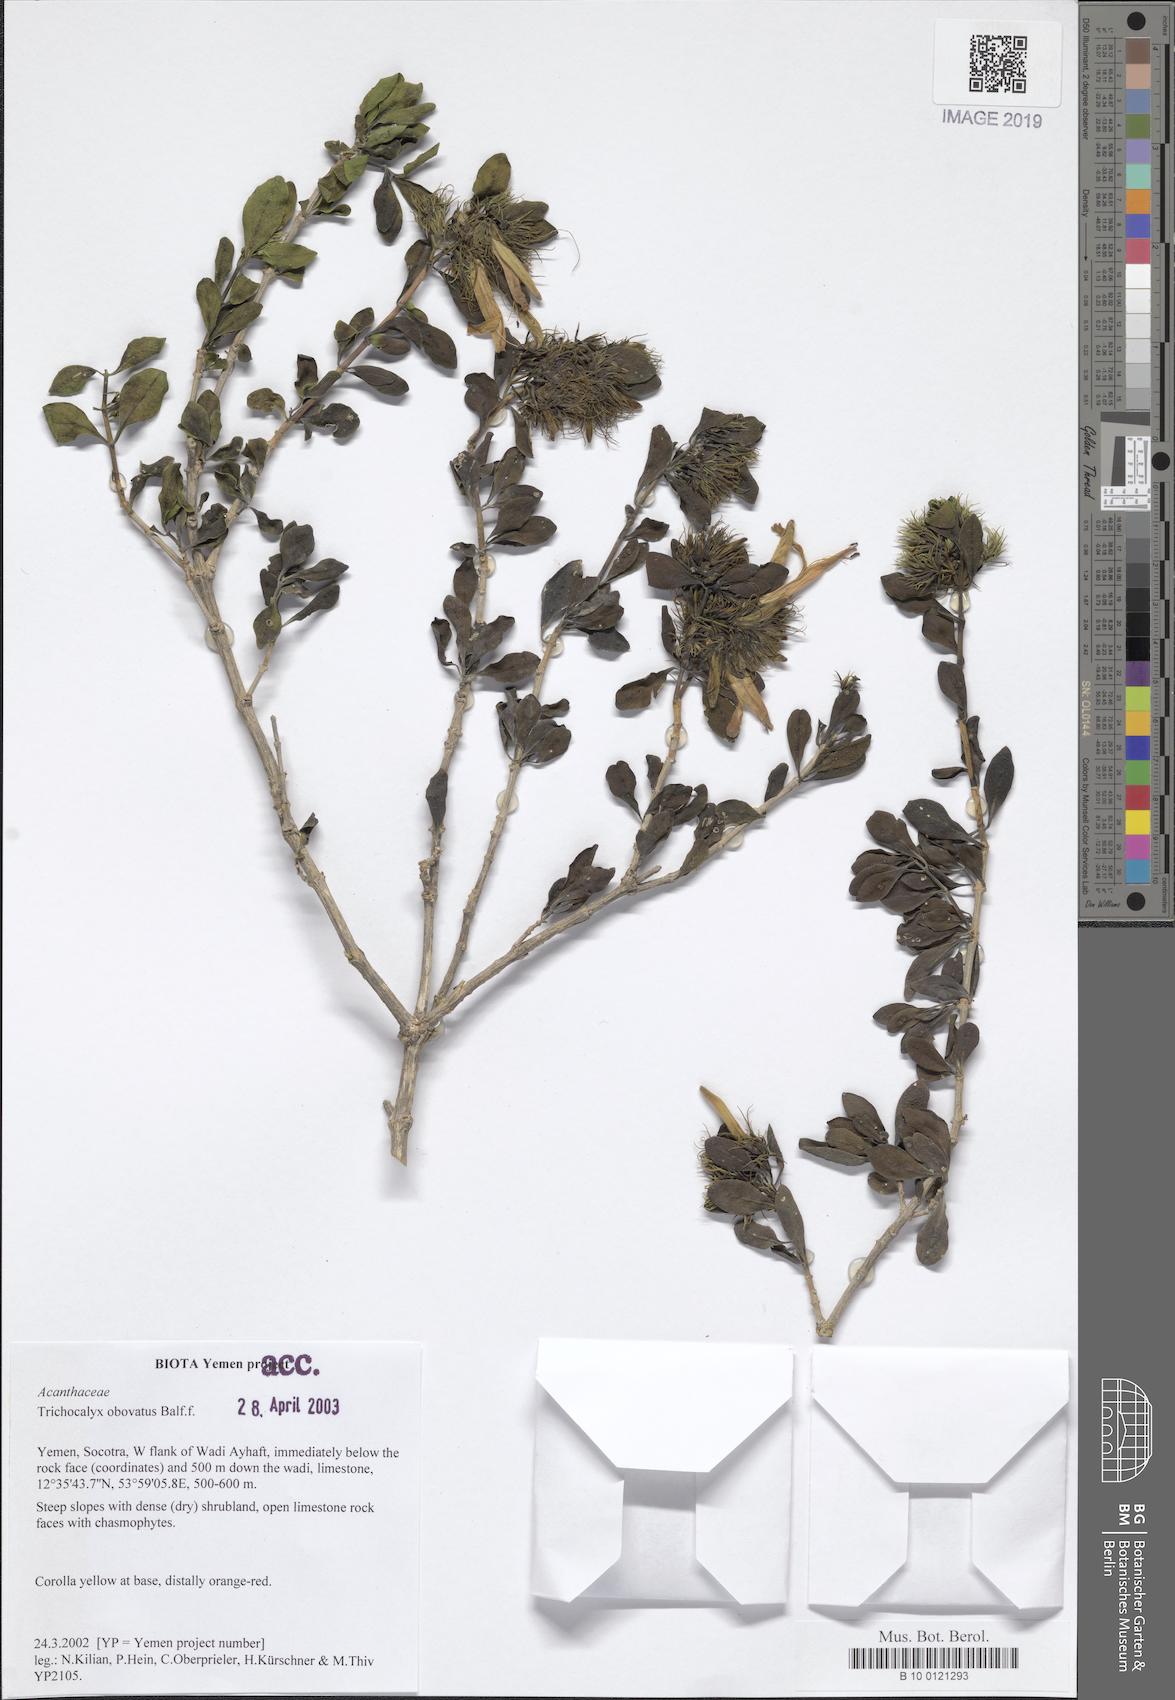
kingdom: Plantae
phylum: Tracheophyta
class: Magnoliopsida
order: Lamiales
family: Acanthaceae
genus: Trichocalyx
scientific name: Trichocalyx obovatus
